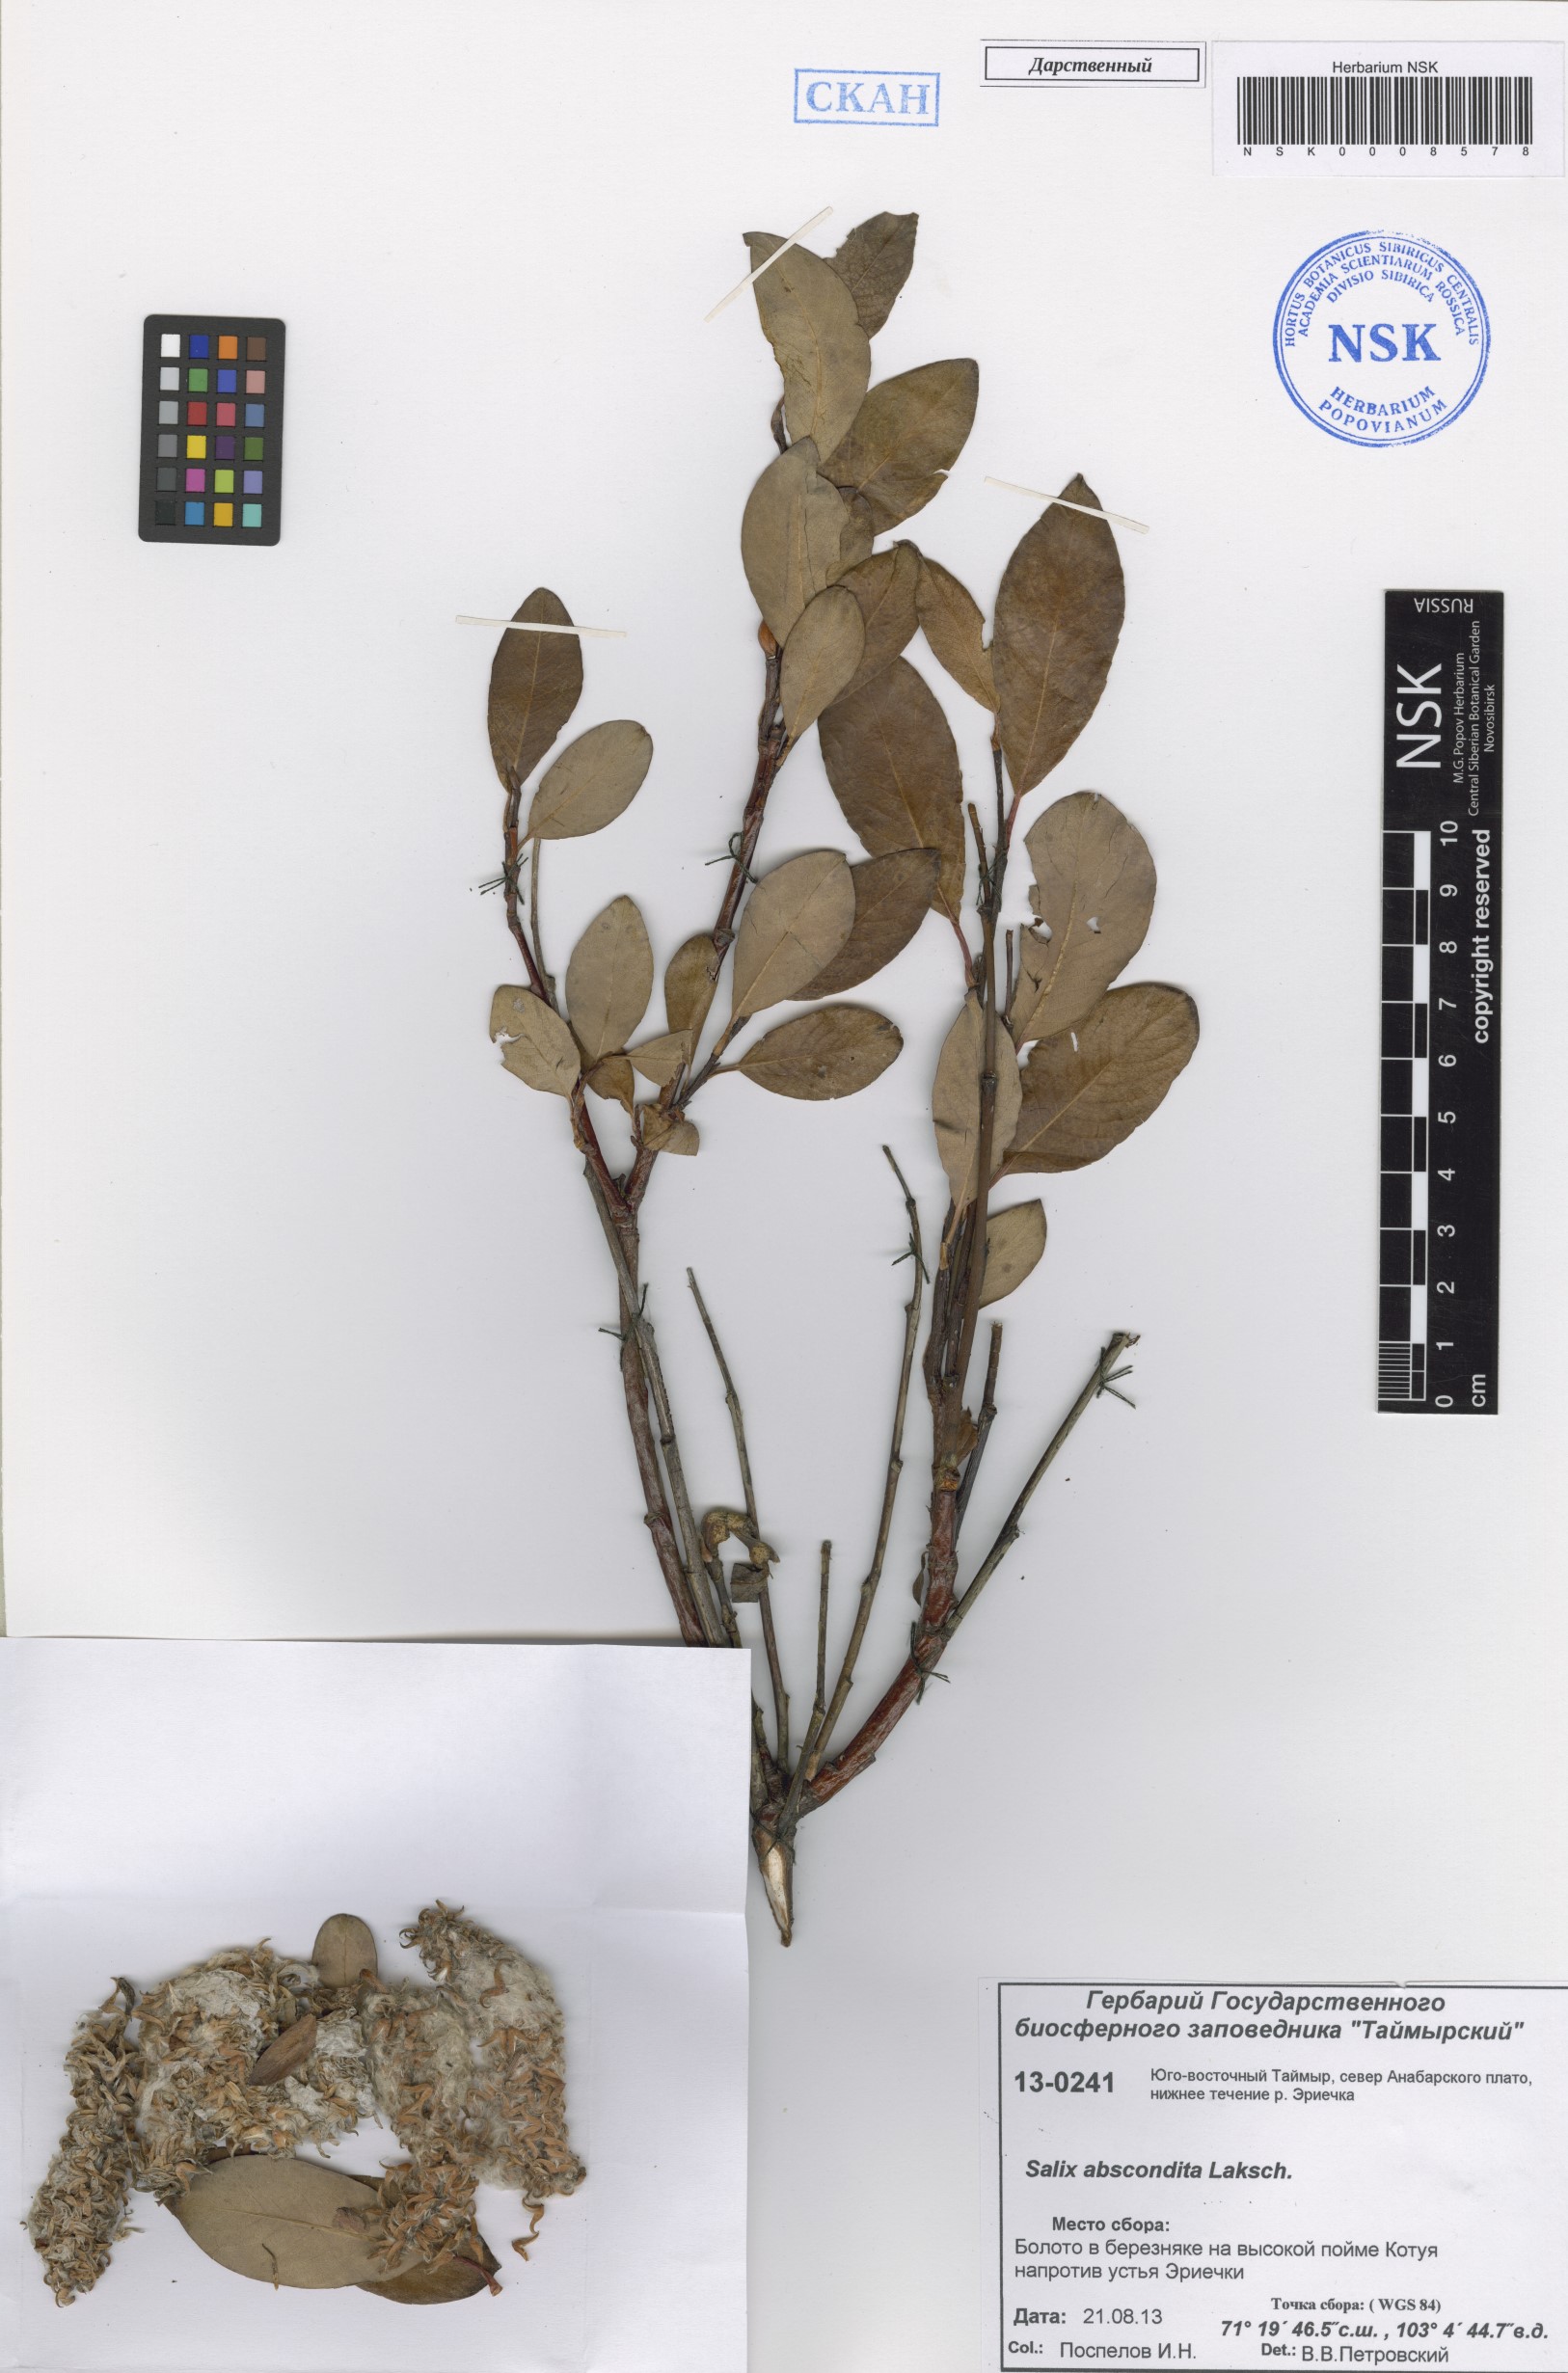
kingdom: Plantae
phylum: Tracheophyta
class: Magnoliopsida
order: Malpighiales
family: Salicaceae
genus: Salix
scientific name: Salix abscondita
